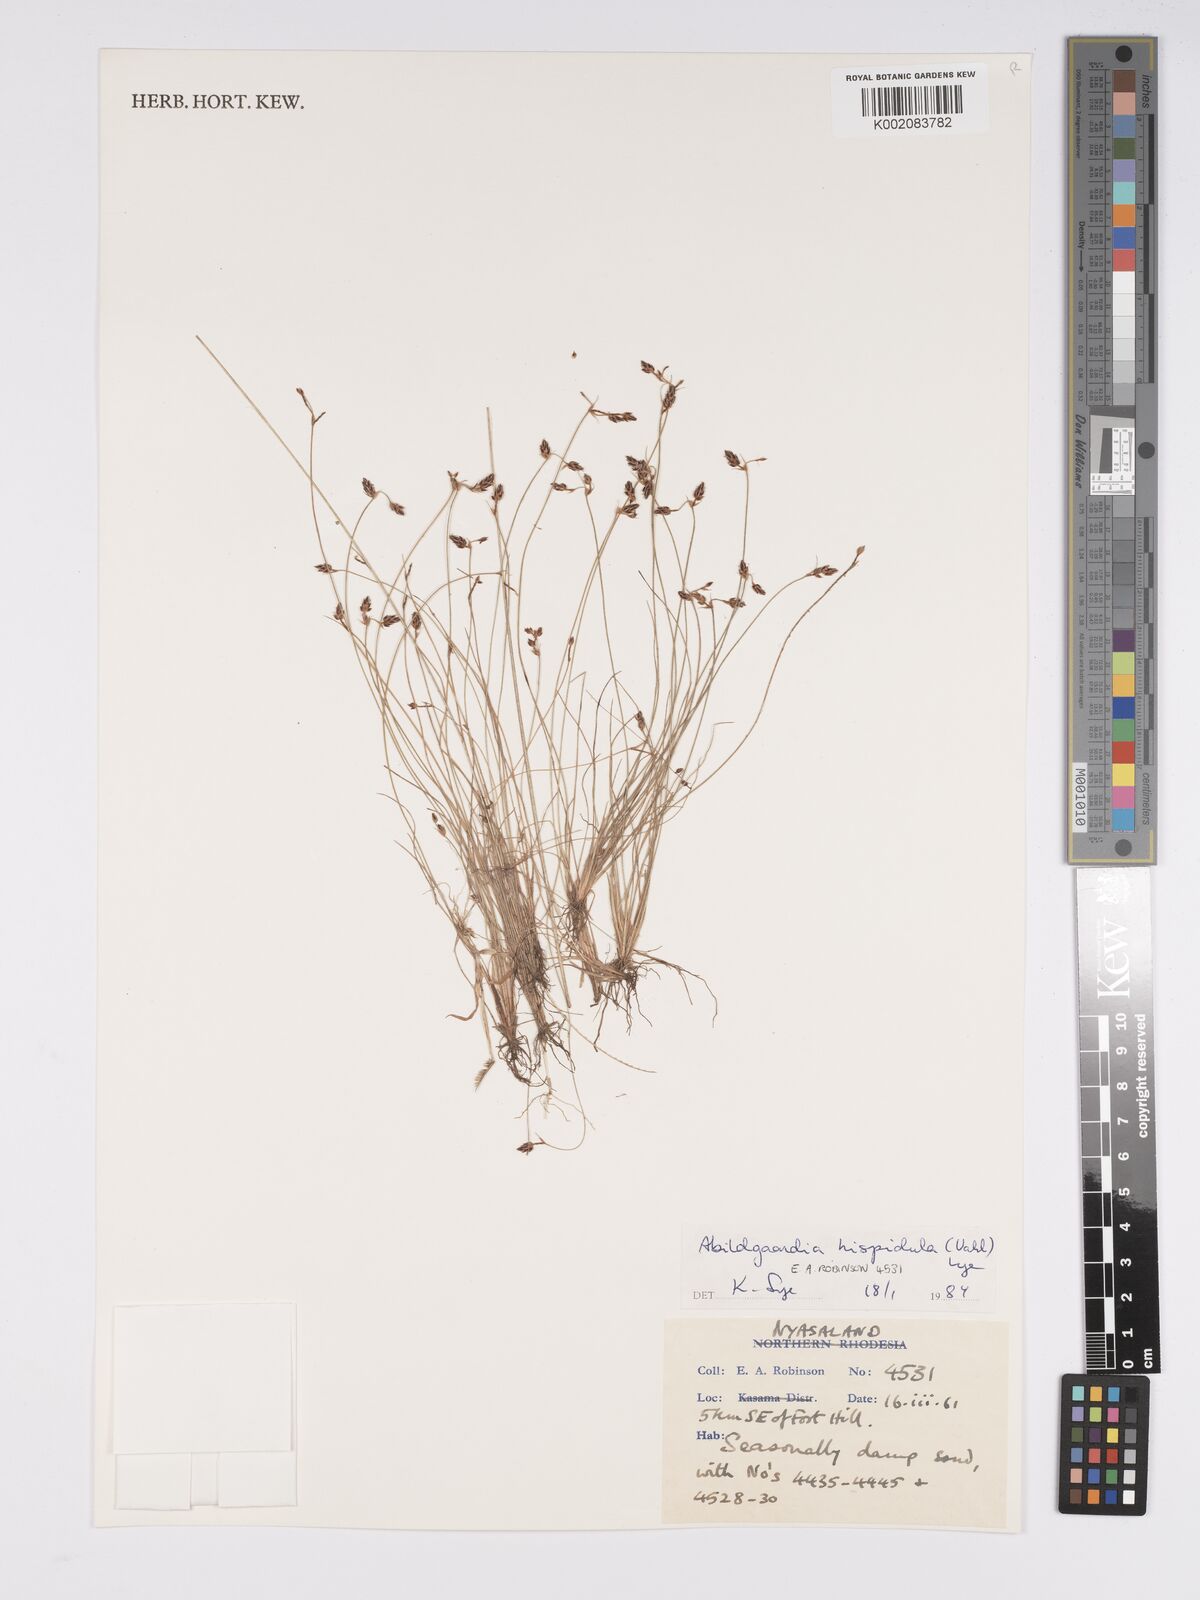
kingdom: Plantae
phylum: Tracheophyta
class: Liliopsida
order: Poales
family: Cyperaceae
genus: Bulbostylis
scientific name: Bulbostylis hispidula
